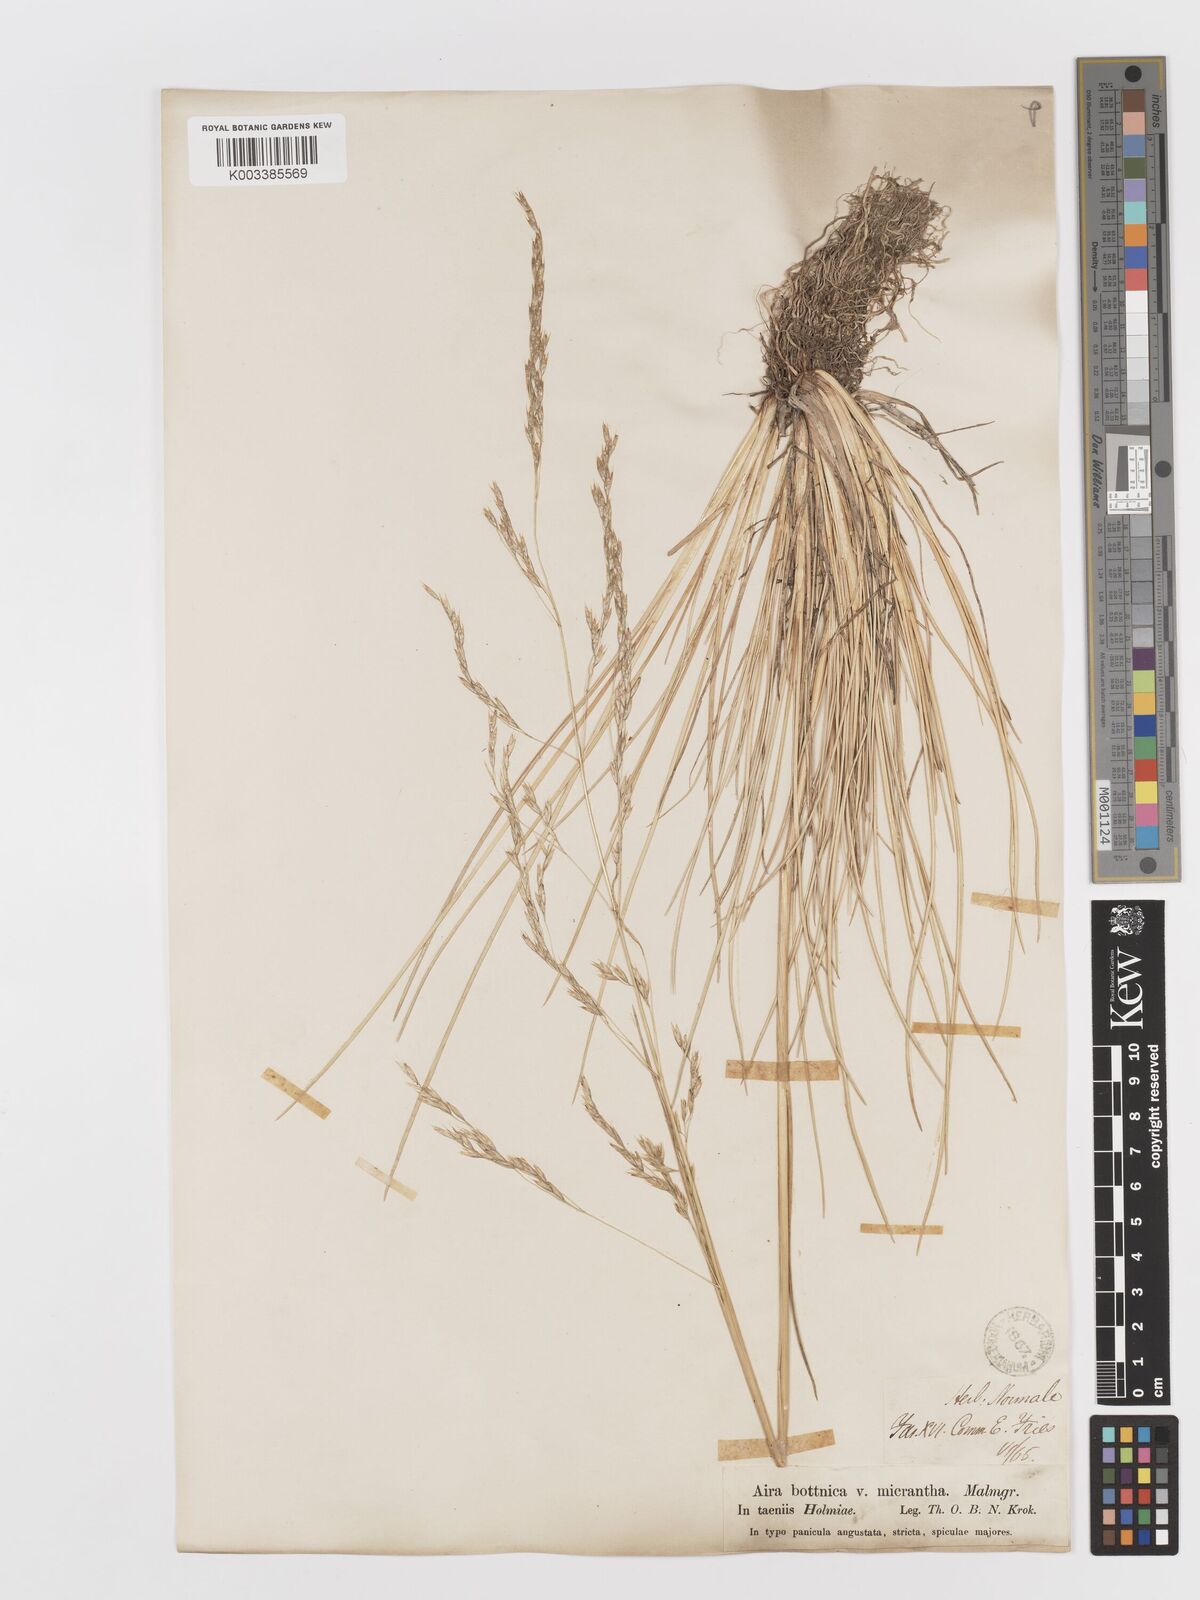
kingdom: Plantae
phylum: Tracheophyta
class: Liliopsida
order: Poales
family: Poaceae
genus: Deschampsia
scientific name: Deschampsia cespitosa
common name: Tufted hair-grass
